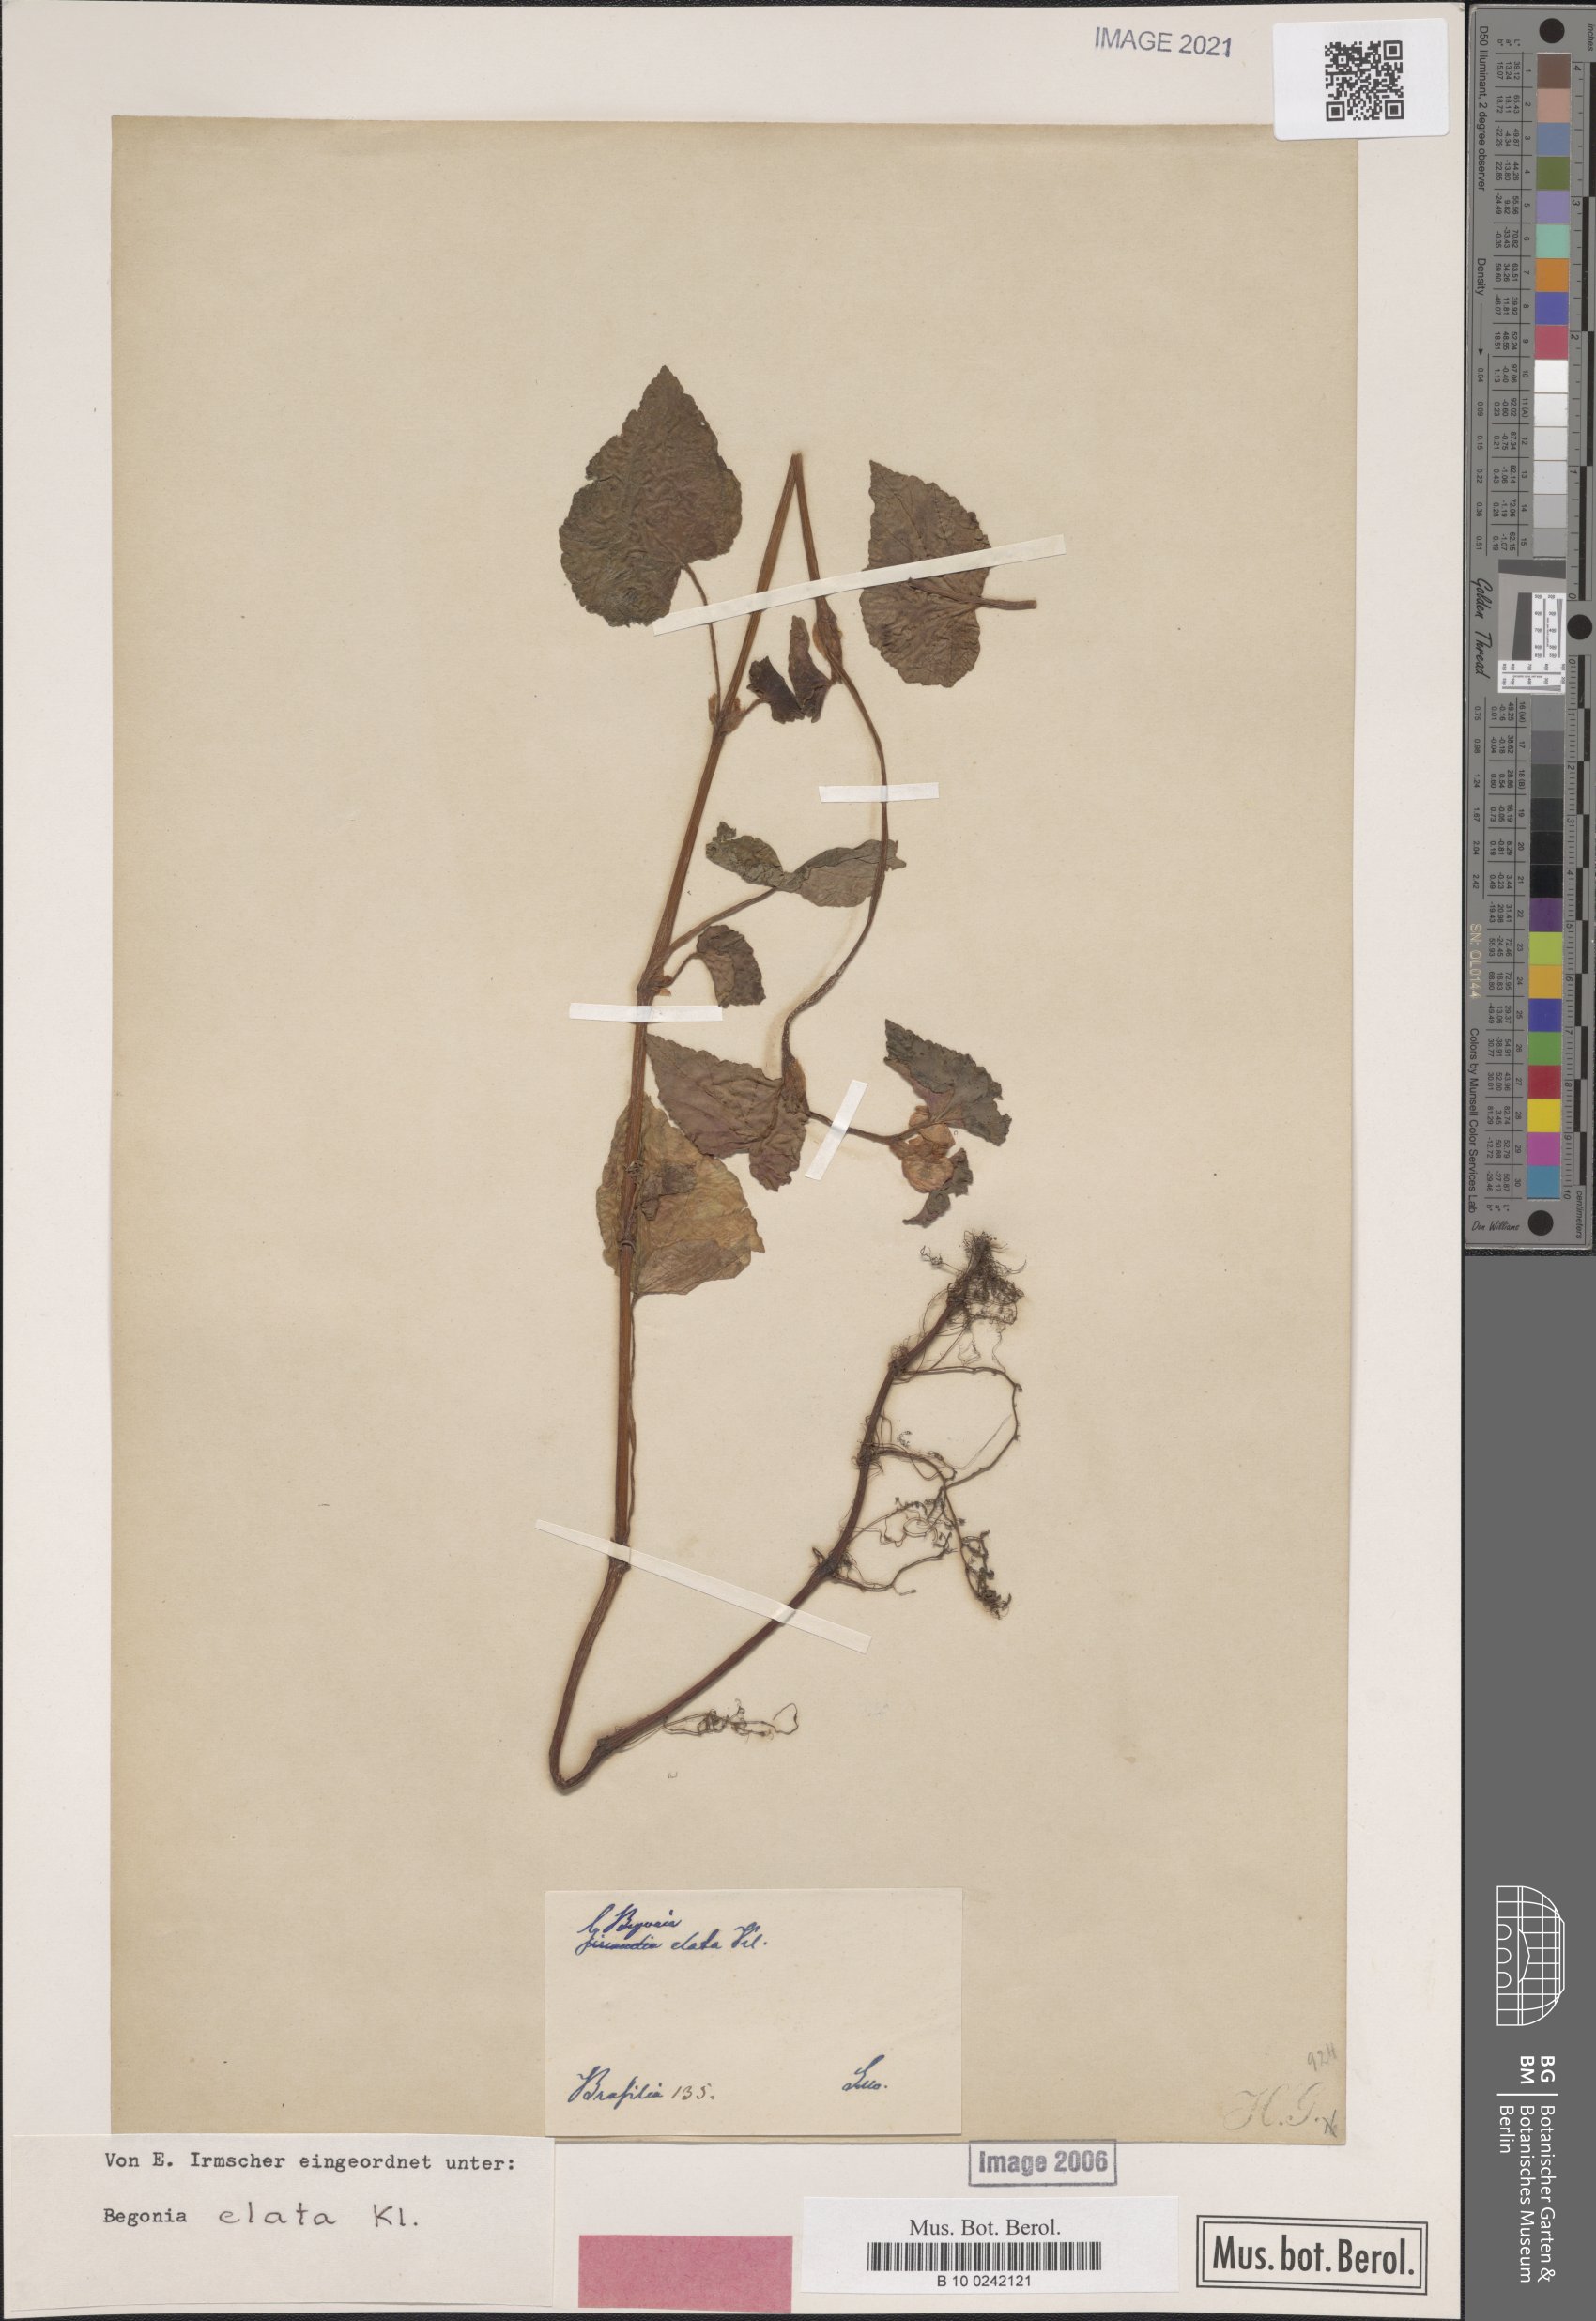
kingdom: Plantae
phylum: Tracheophyta
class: Magnoliopsida
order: Cucurbitales
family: Begoniaceae
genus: Begonia
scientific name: Begonia fischeri
